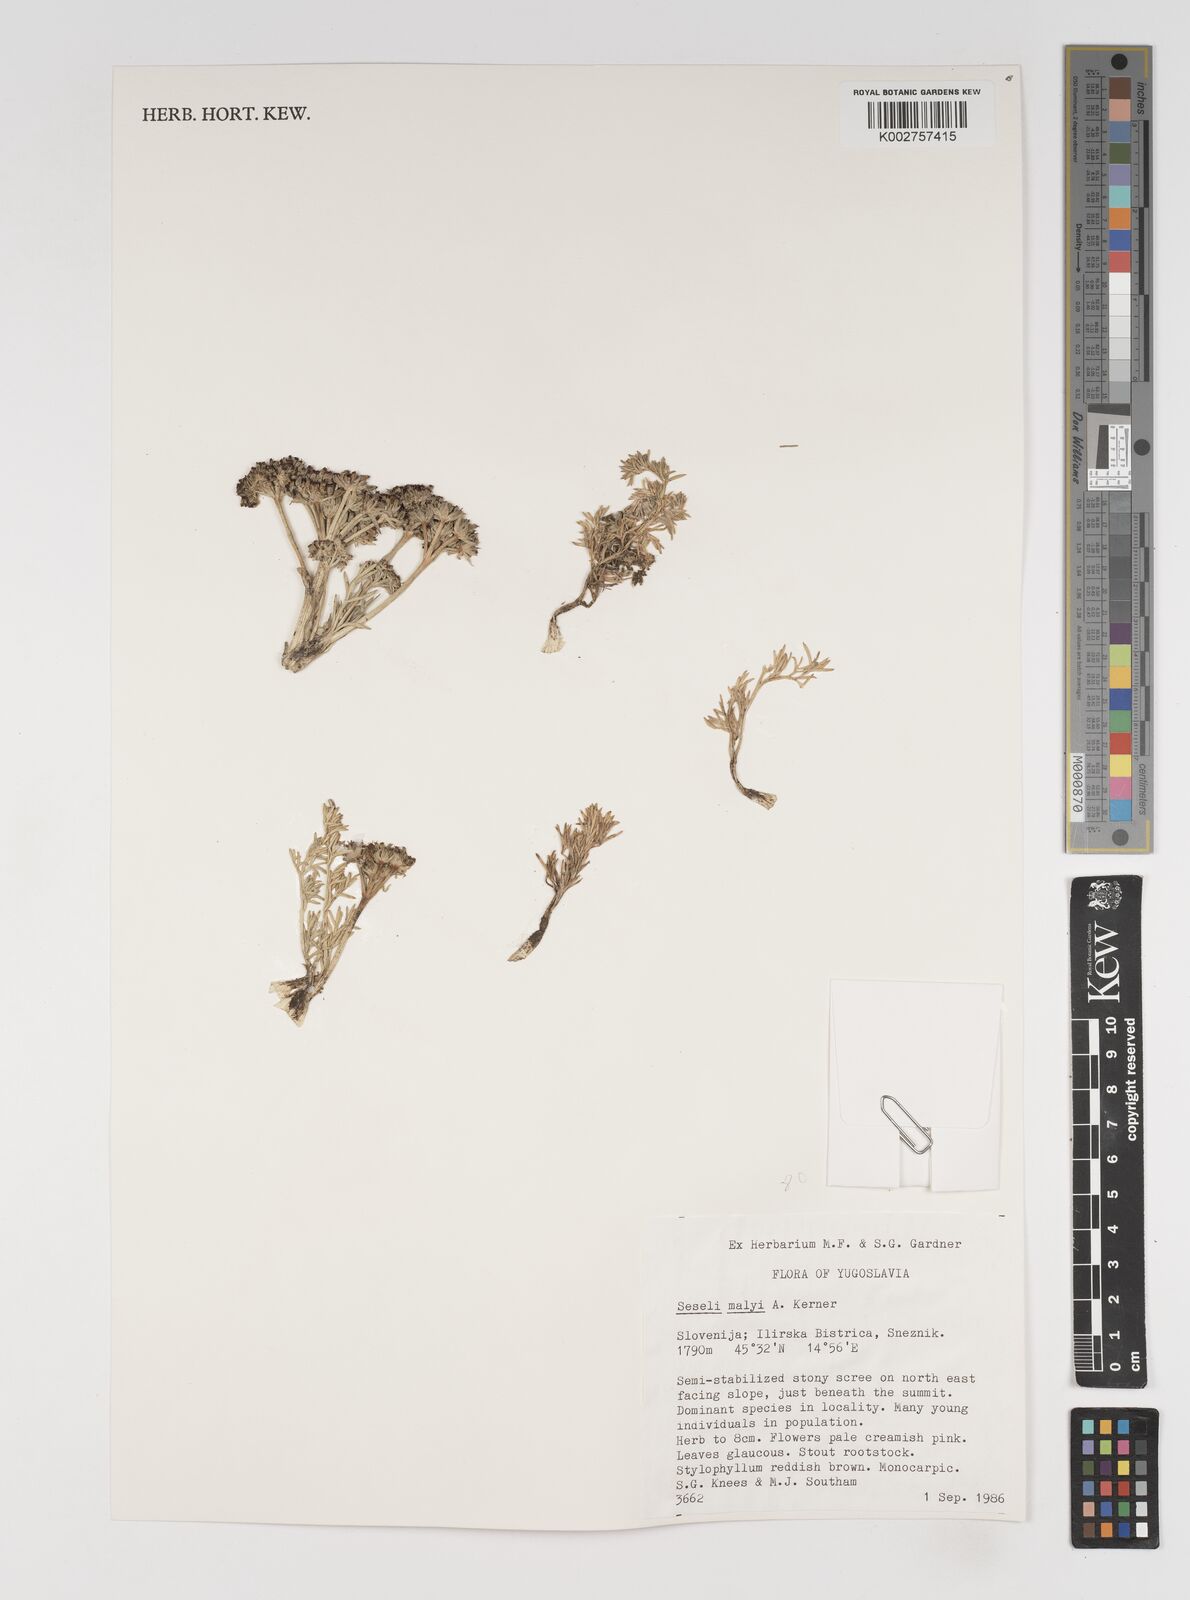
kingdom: Plantae
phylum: Tracheophyta
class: Magnoliopsida
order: Apiales
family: Apiaceae
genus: Seseli
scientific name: Seseli malyi
